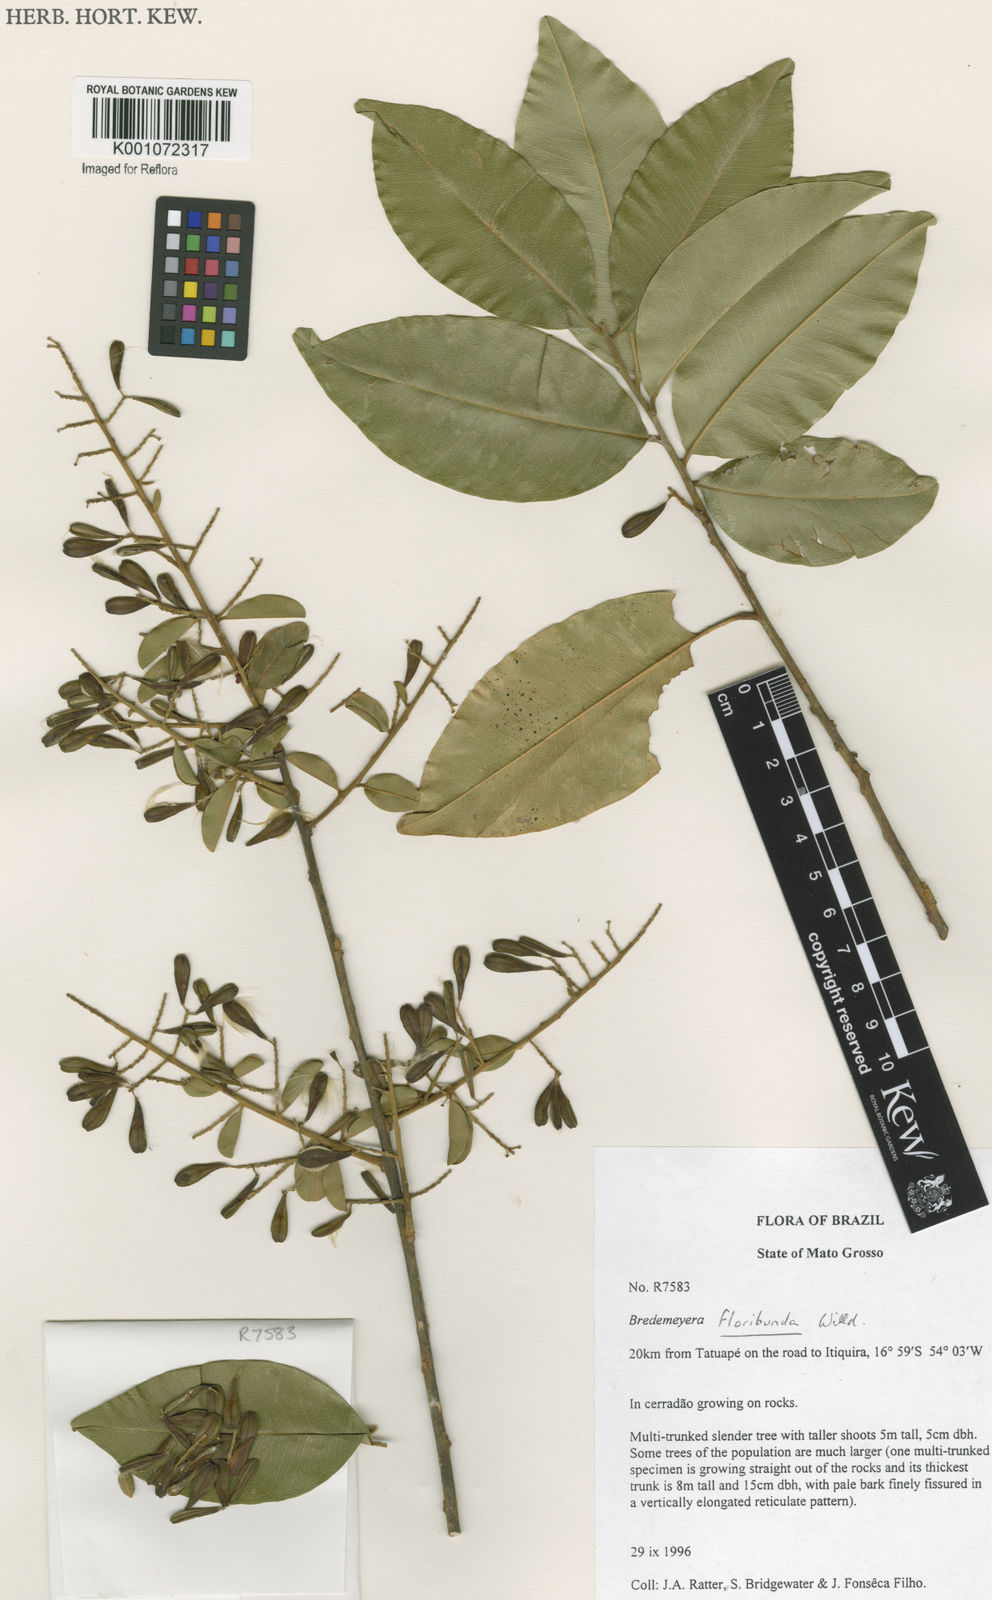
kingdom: Plantae
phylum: Tracheophyta
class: Magnoliopsida
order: Fabales
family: Polygalaceae
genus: Bredemeyera
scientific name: Bredemeyera floribunda
